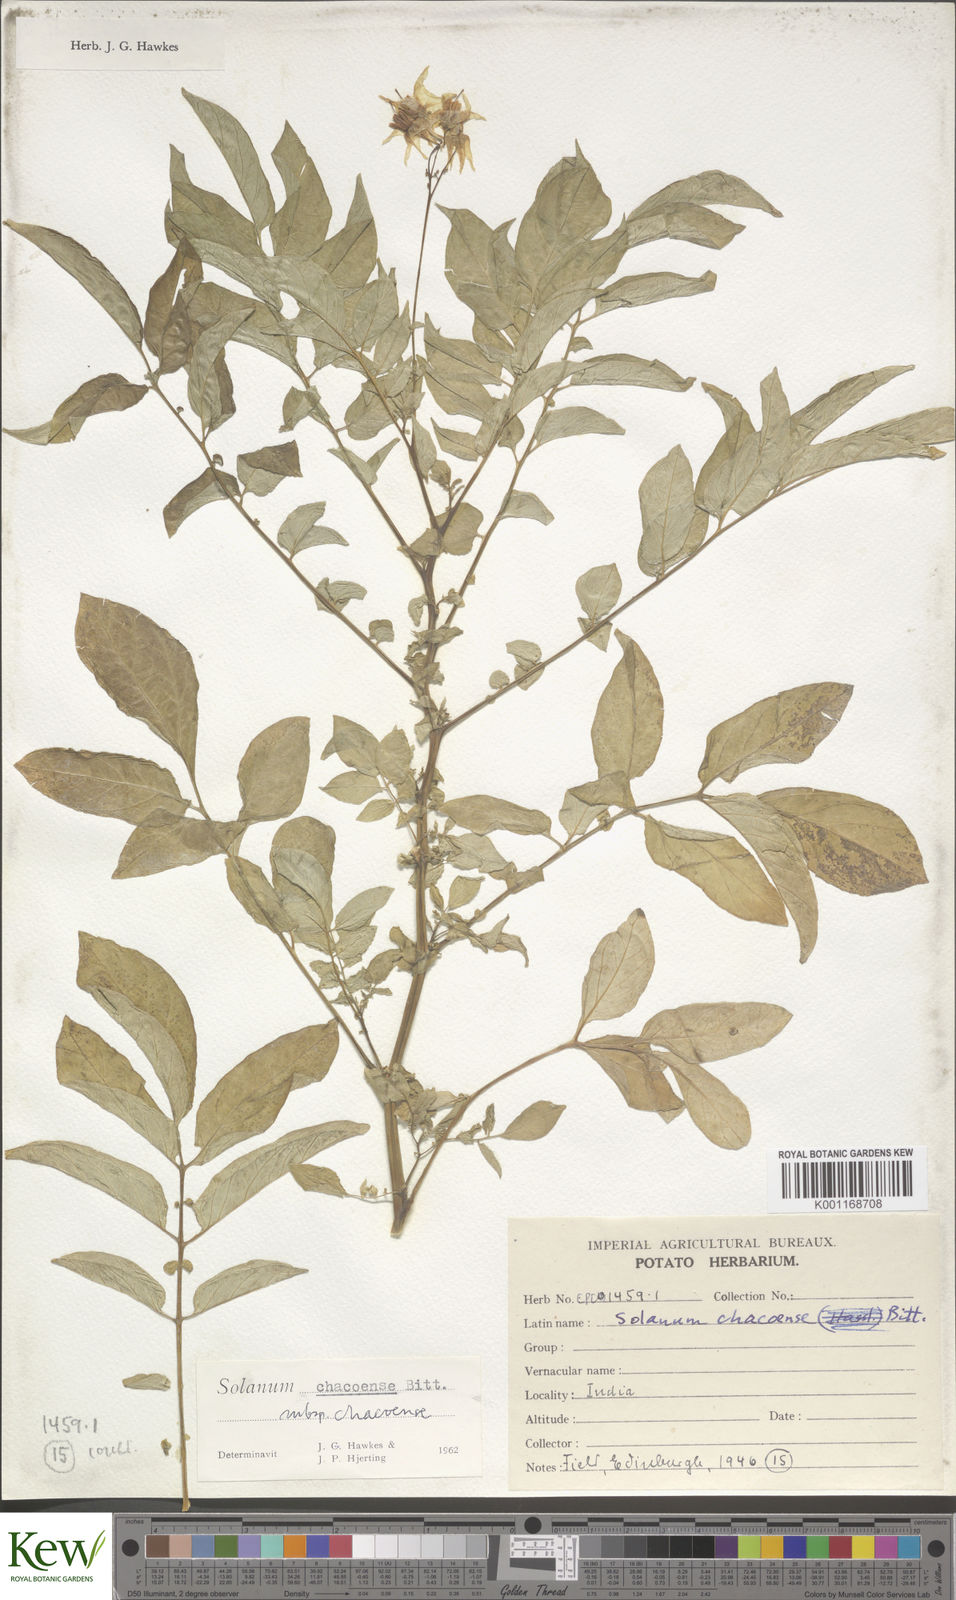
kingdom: Plantae
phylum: Tracheophyta
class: Magnoliopsida
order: Solanales
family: Solanaceae
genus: Solanum
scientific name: Solanum chacoense
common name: Chaco potato
